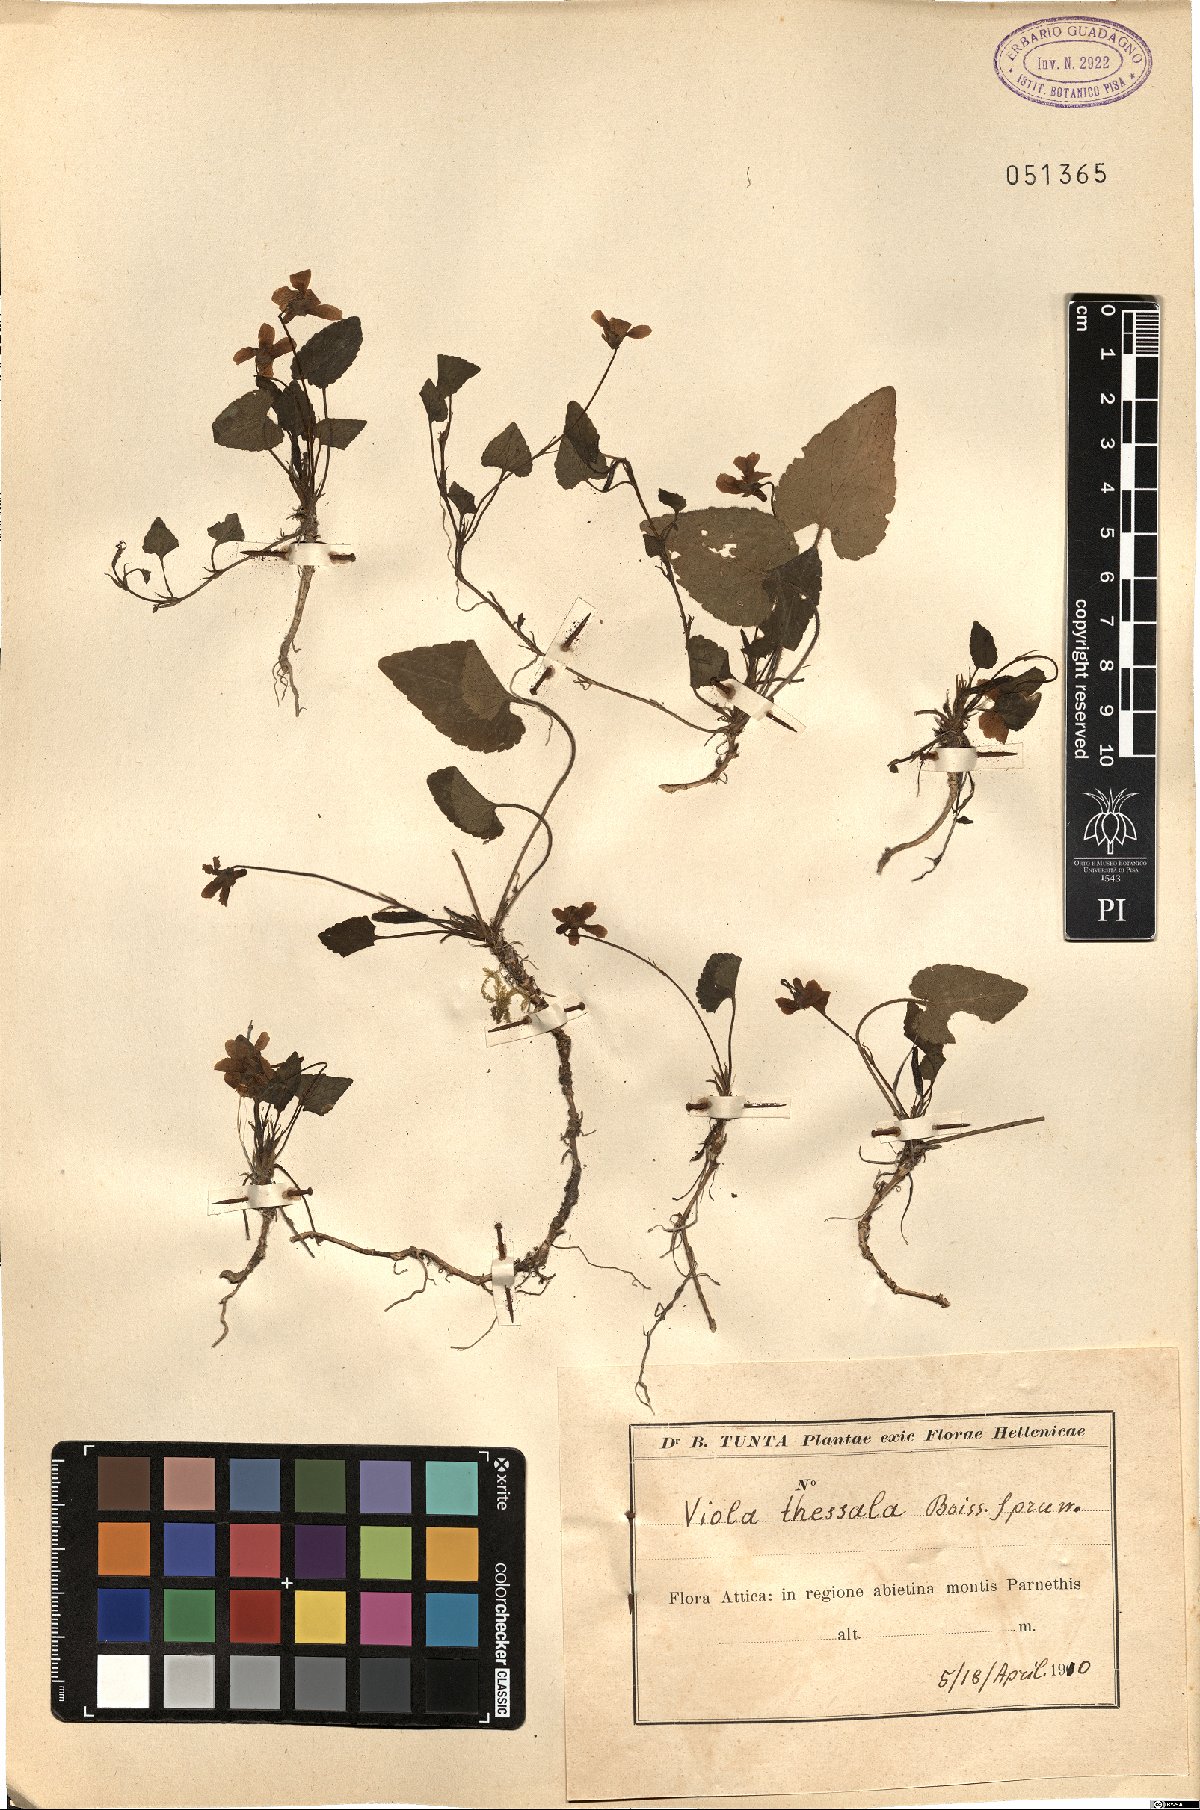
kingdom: Plantae
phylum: Tracheophyta
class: Magnoliopsida
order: Malpighiales
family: Violaceae
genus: Viola
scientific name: Viola alba
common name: White violet
